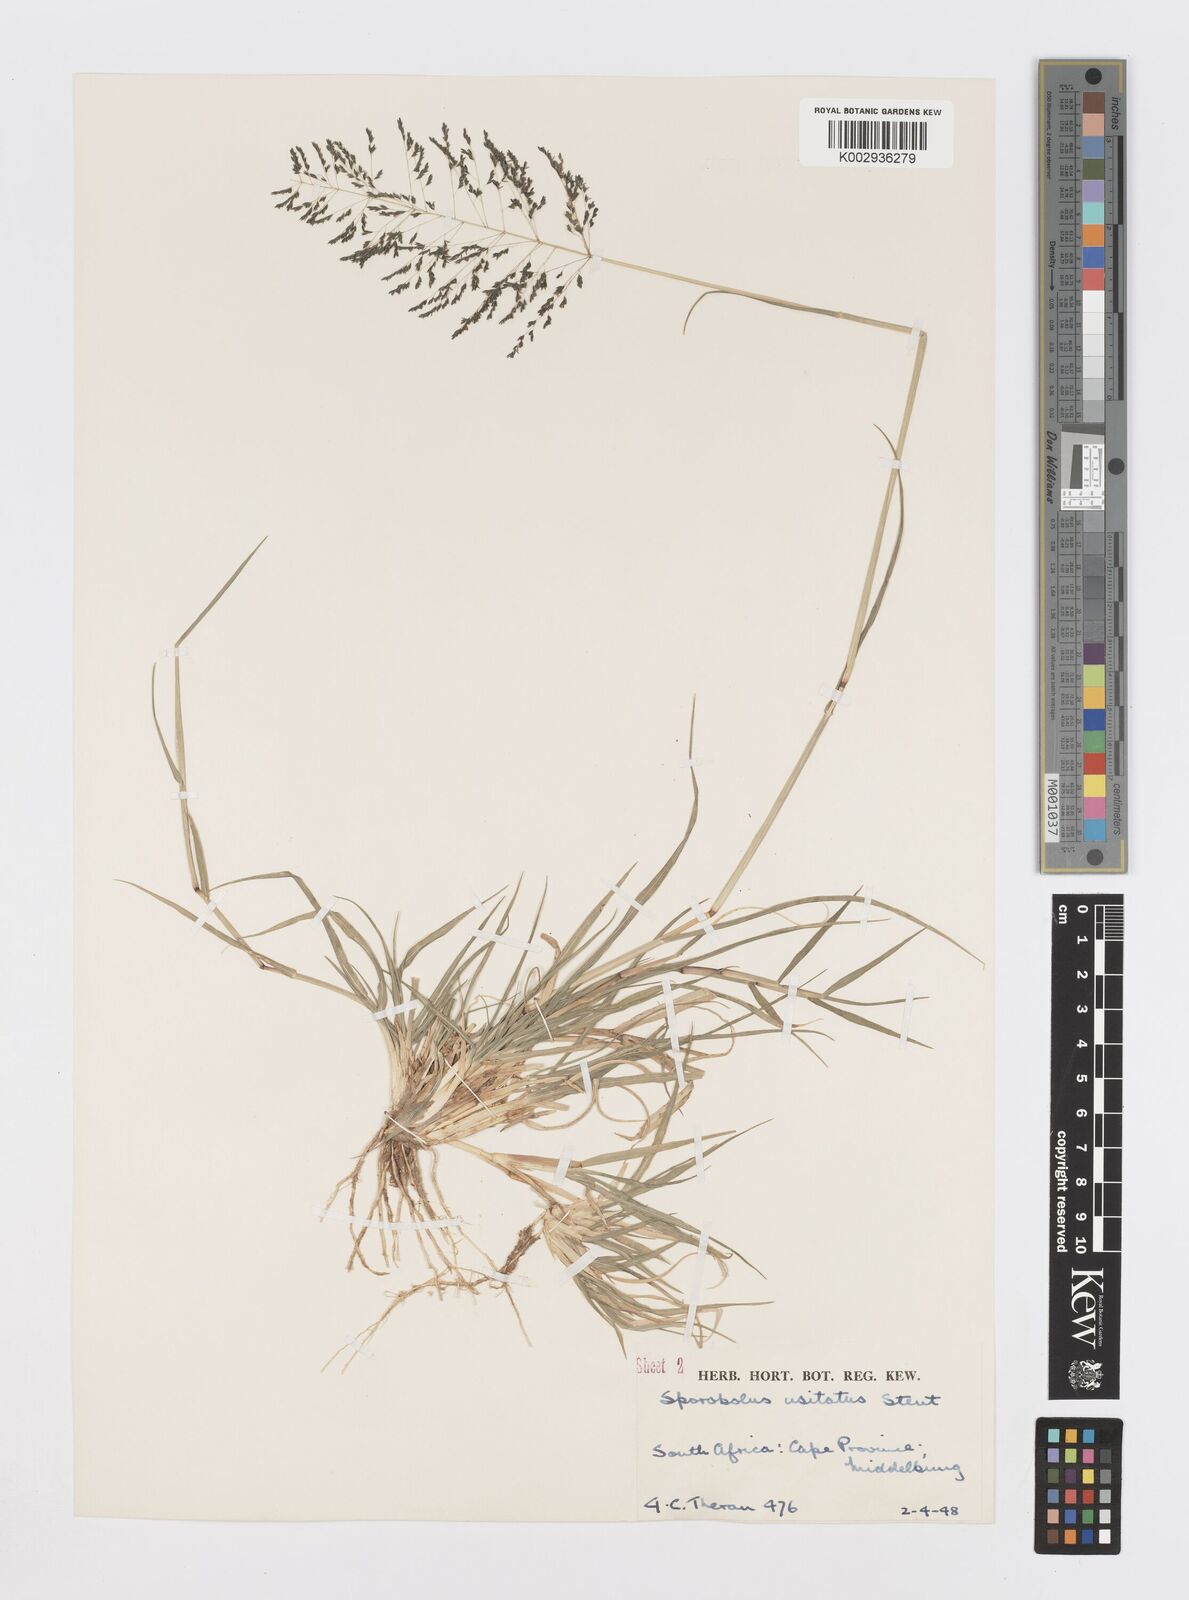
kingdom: Plantae
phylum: Tracheophyta
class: Liliopsida
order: Poales
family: Poaceae
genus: Sporobolus
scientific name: Sporobolus ioclados
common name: Pan dropseed
